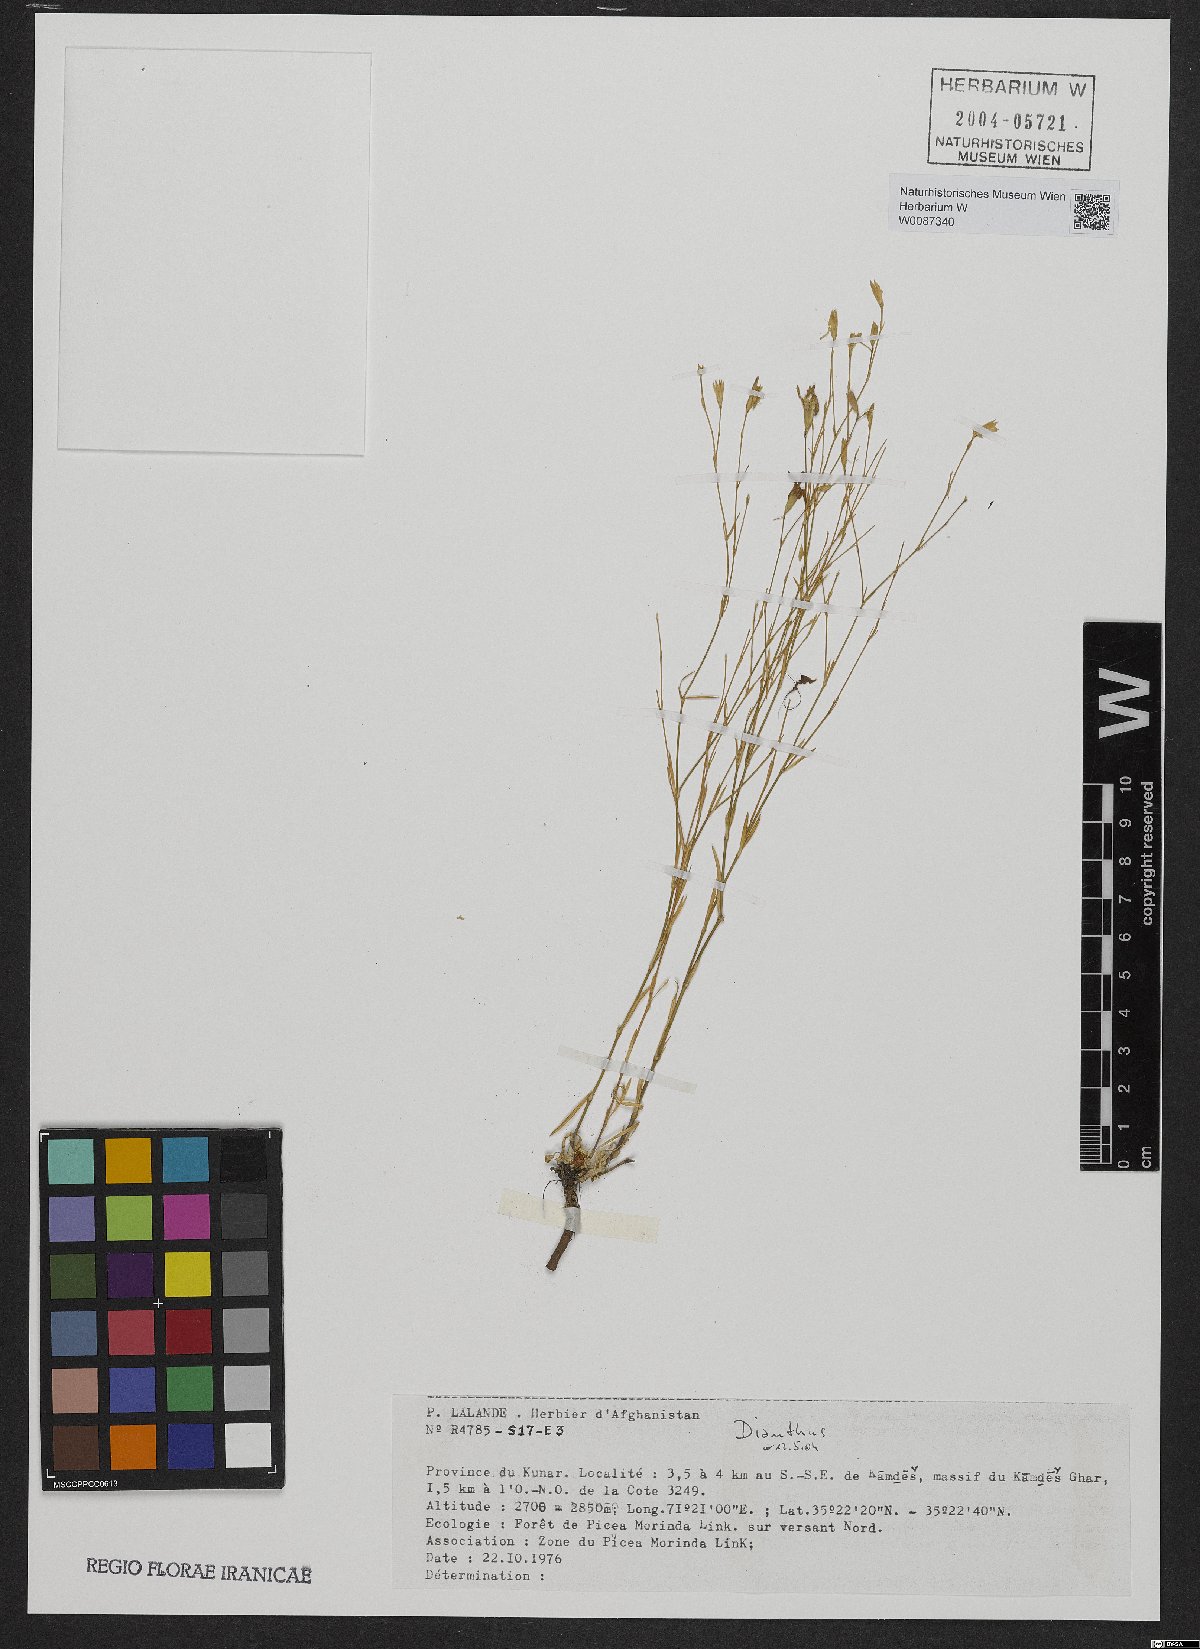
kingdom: Plantae
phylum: Tracheophyta
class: Magnoliopsida
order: Caryophyllales
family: Caryophyllaceae
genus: Dianthus
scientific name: Dianthus
